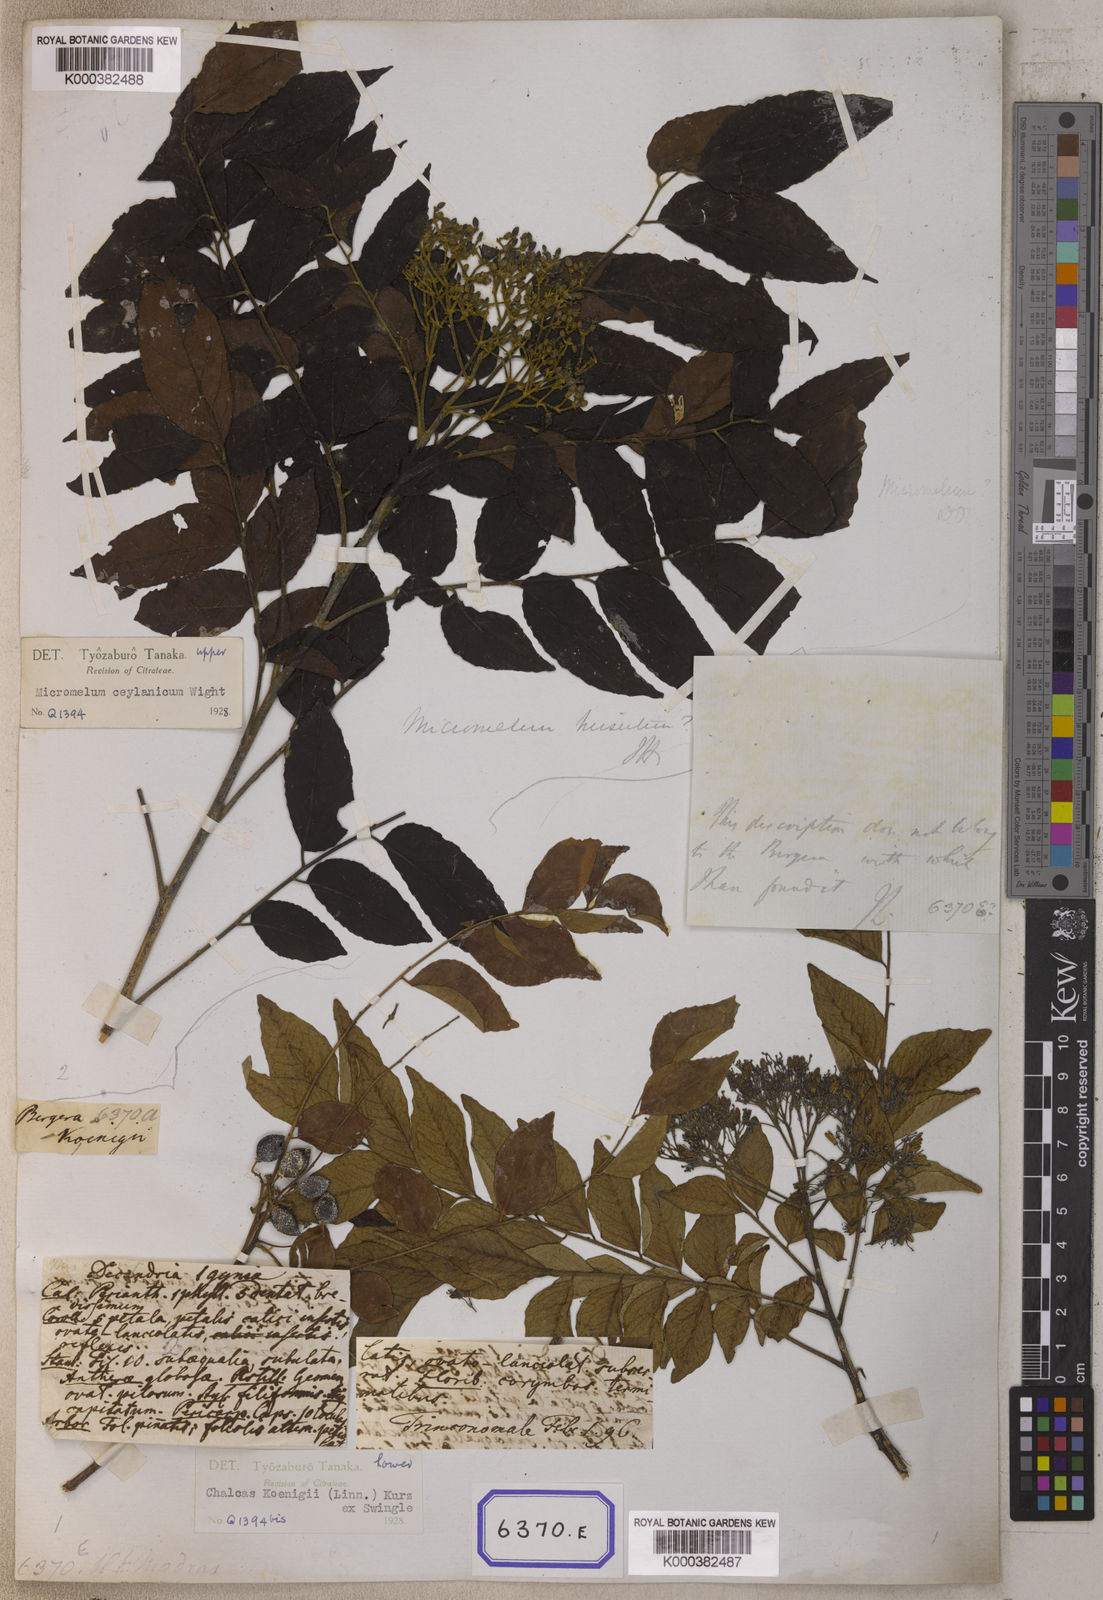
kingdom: Plantae
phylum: Tracheophyta
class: Magnoliopsida
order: Sapindales
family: Rutaceae
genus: Murraya
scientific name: Murraya koenigii
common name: Curry-plant
